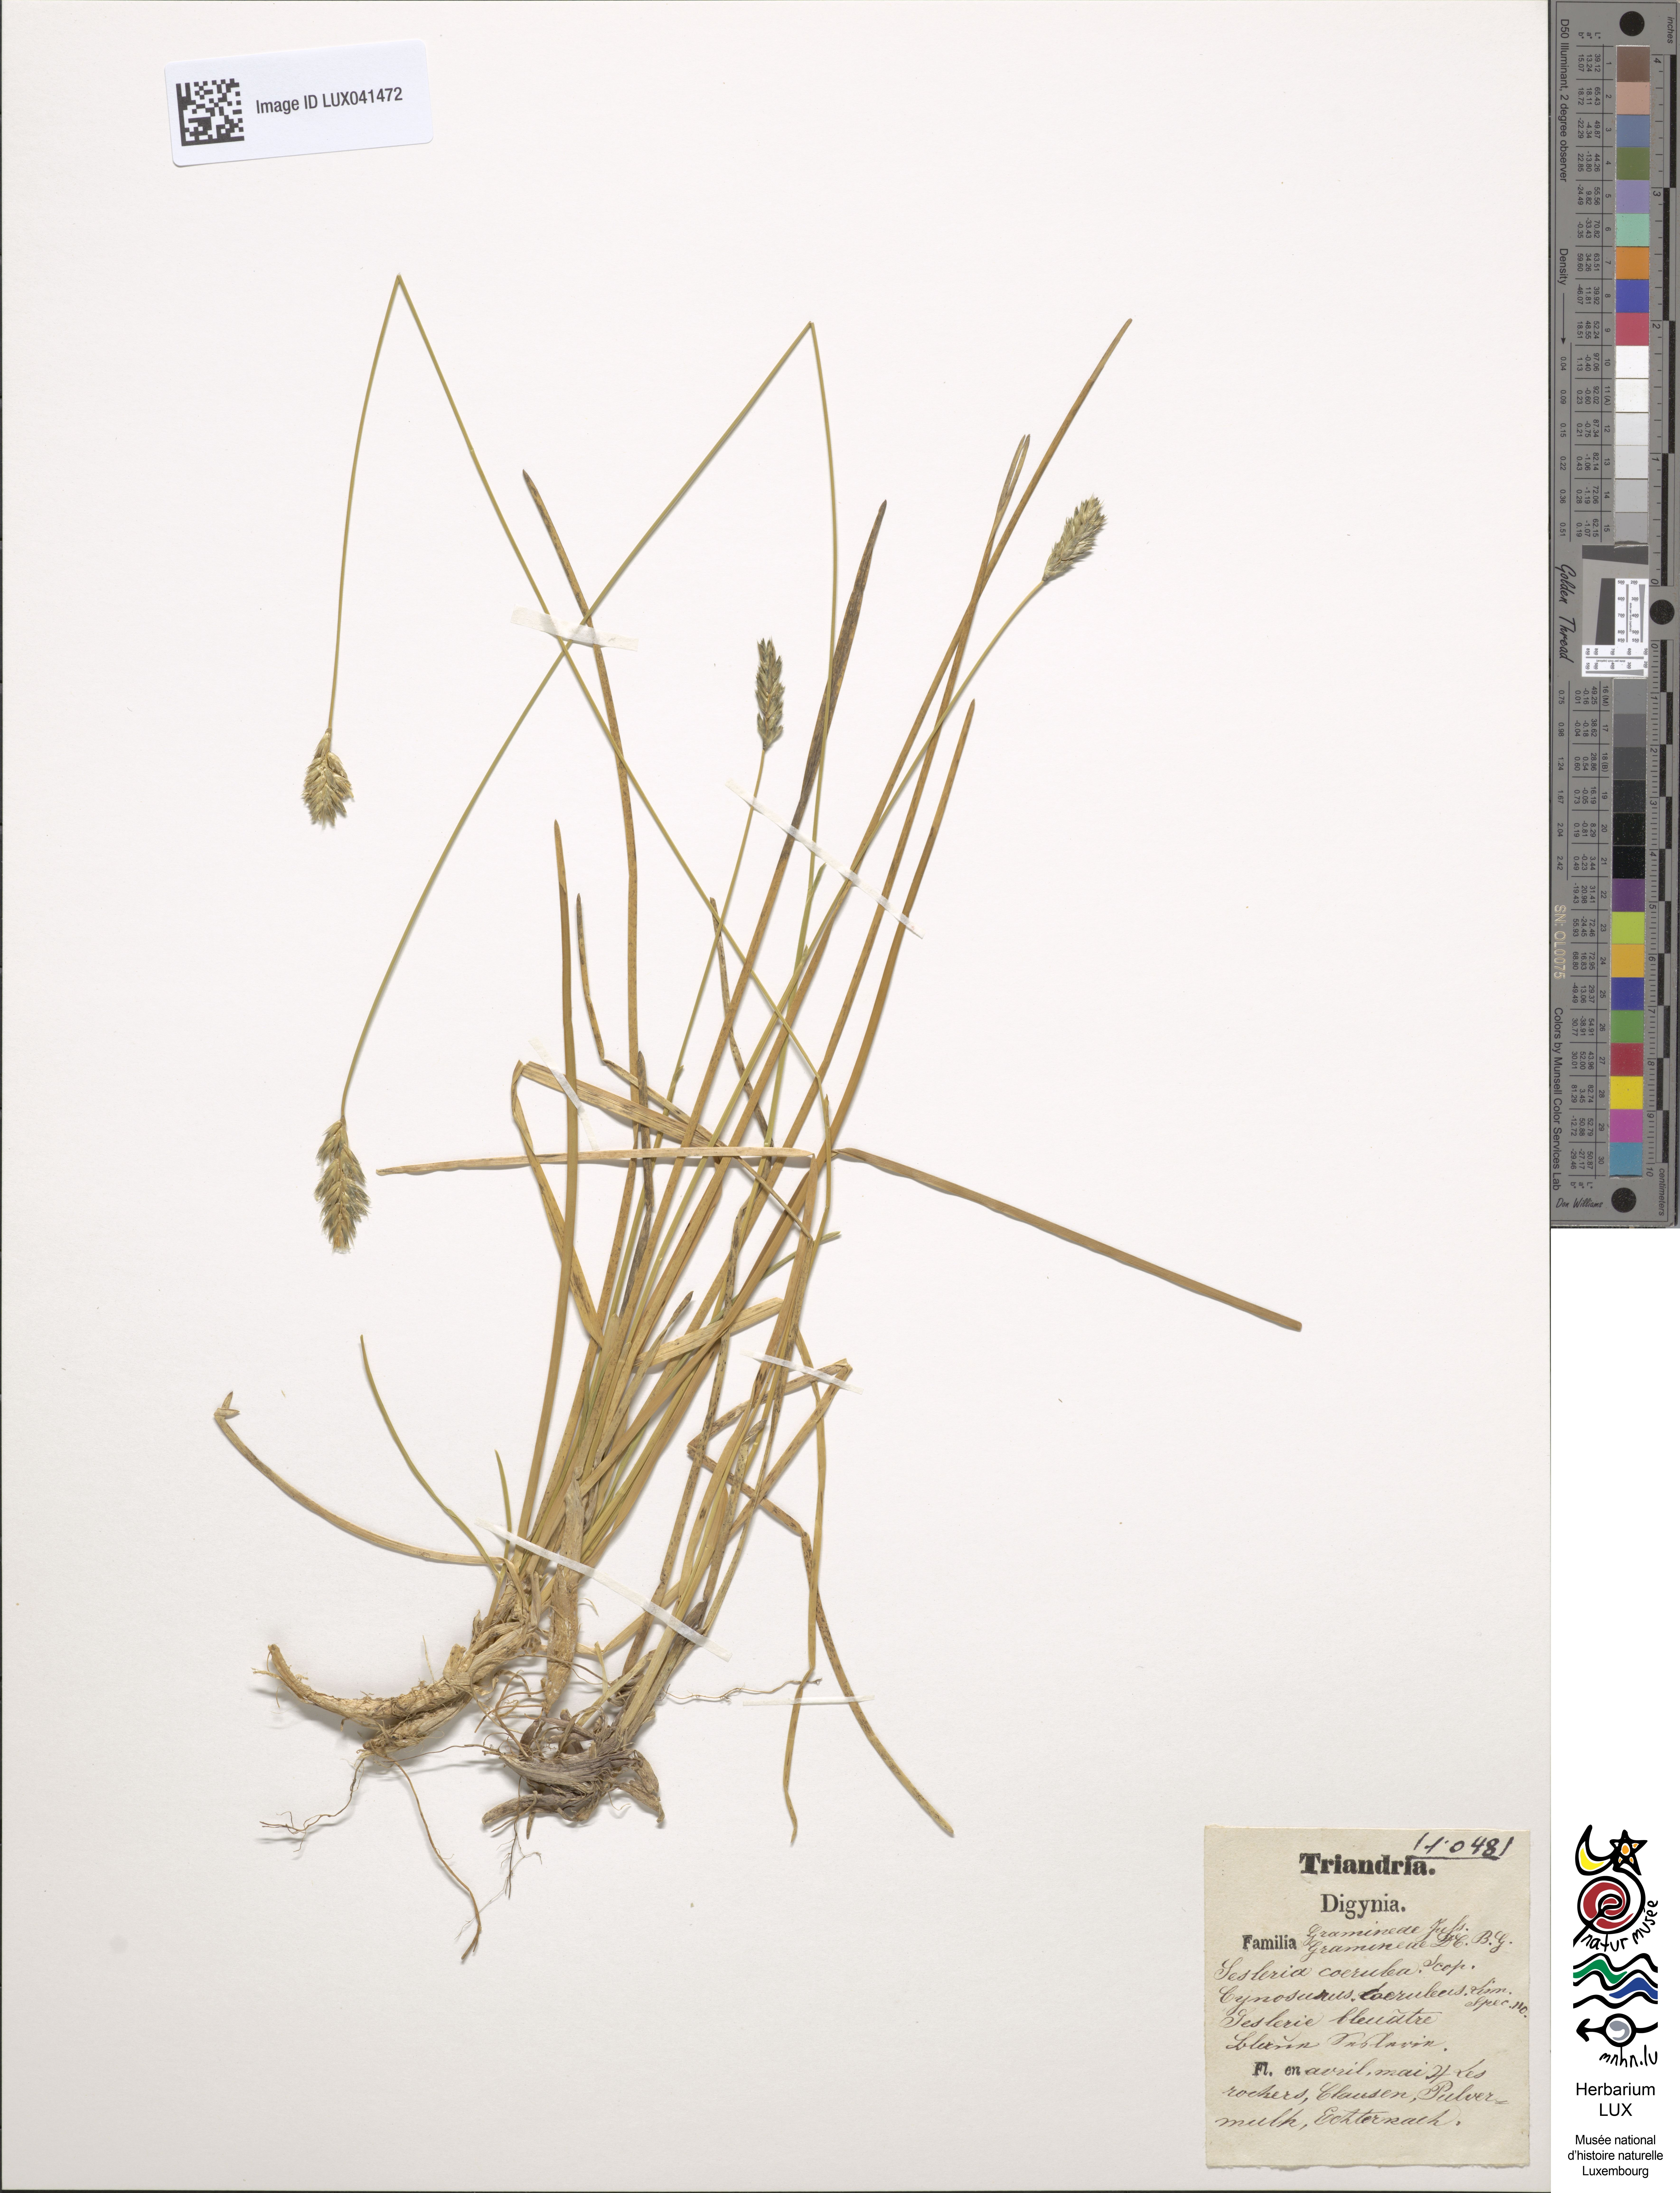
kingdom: Plantae
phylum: Tracheophyta
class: Liliopsida
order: Poales
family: Poaceae
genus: Sesleria
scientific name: Sesleria albicans
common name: Blue moor-grass
